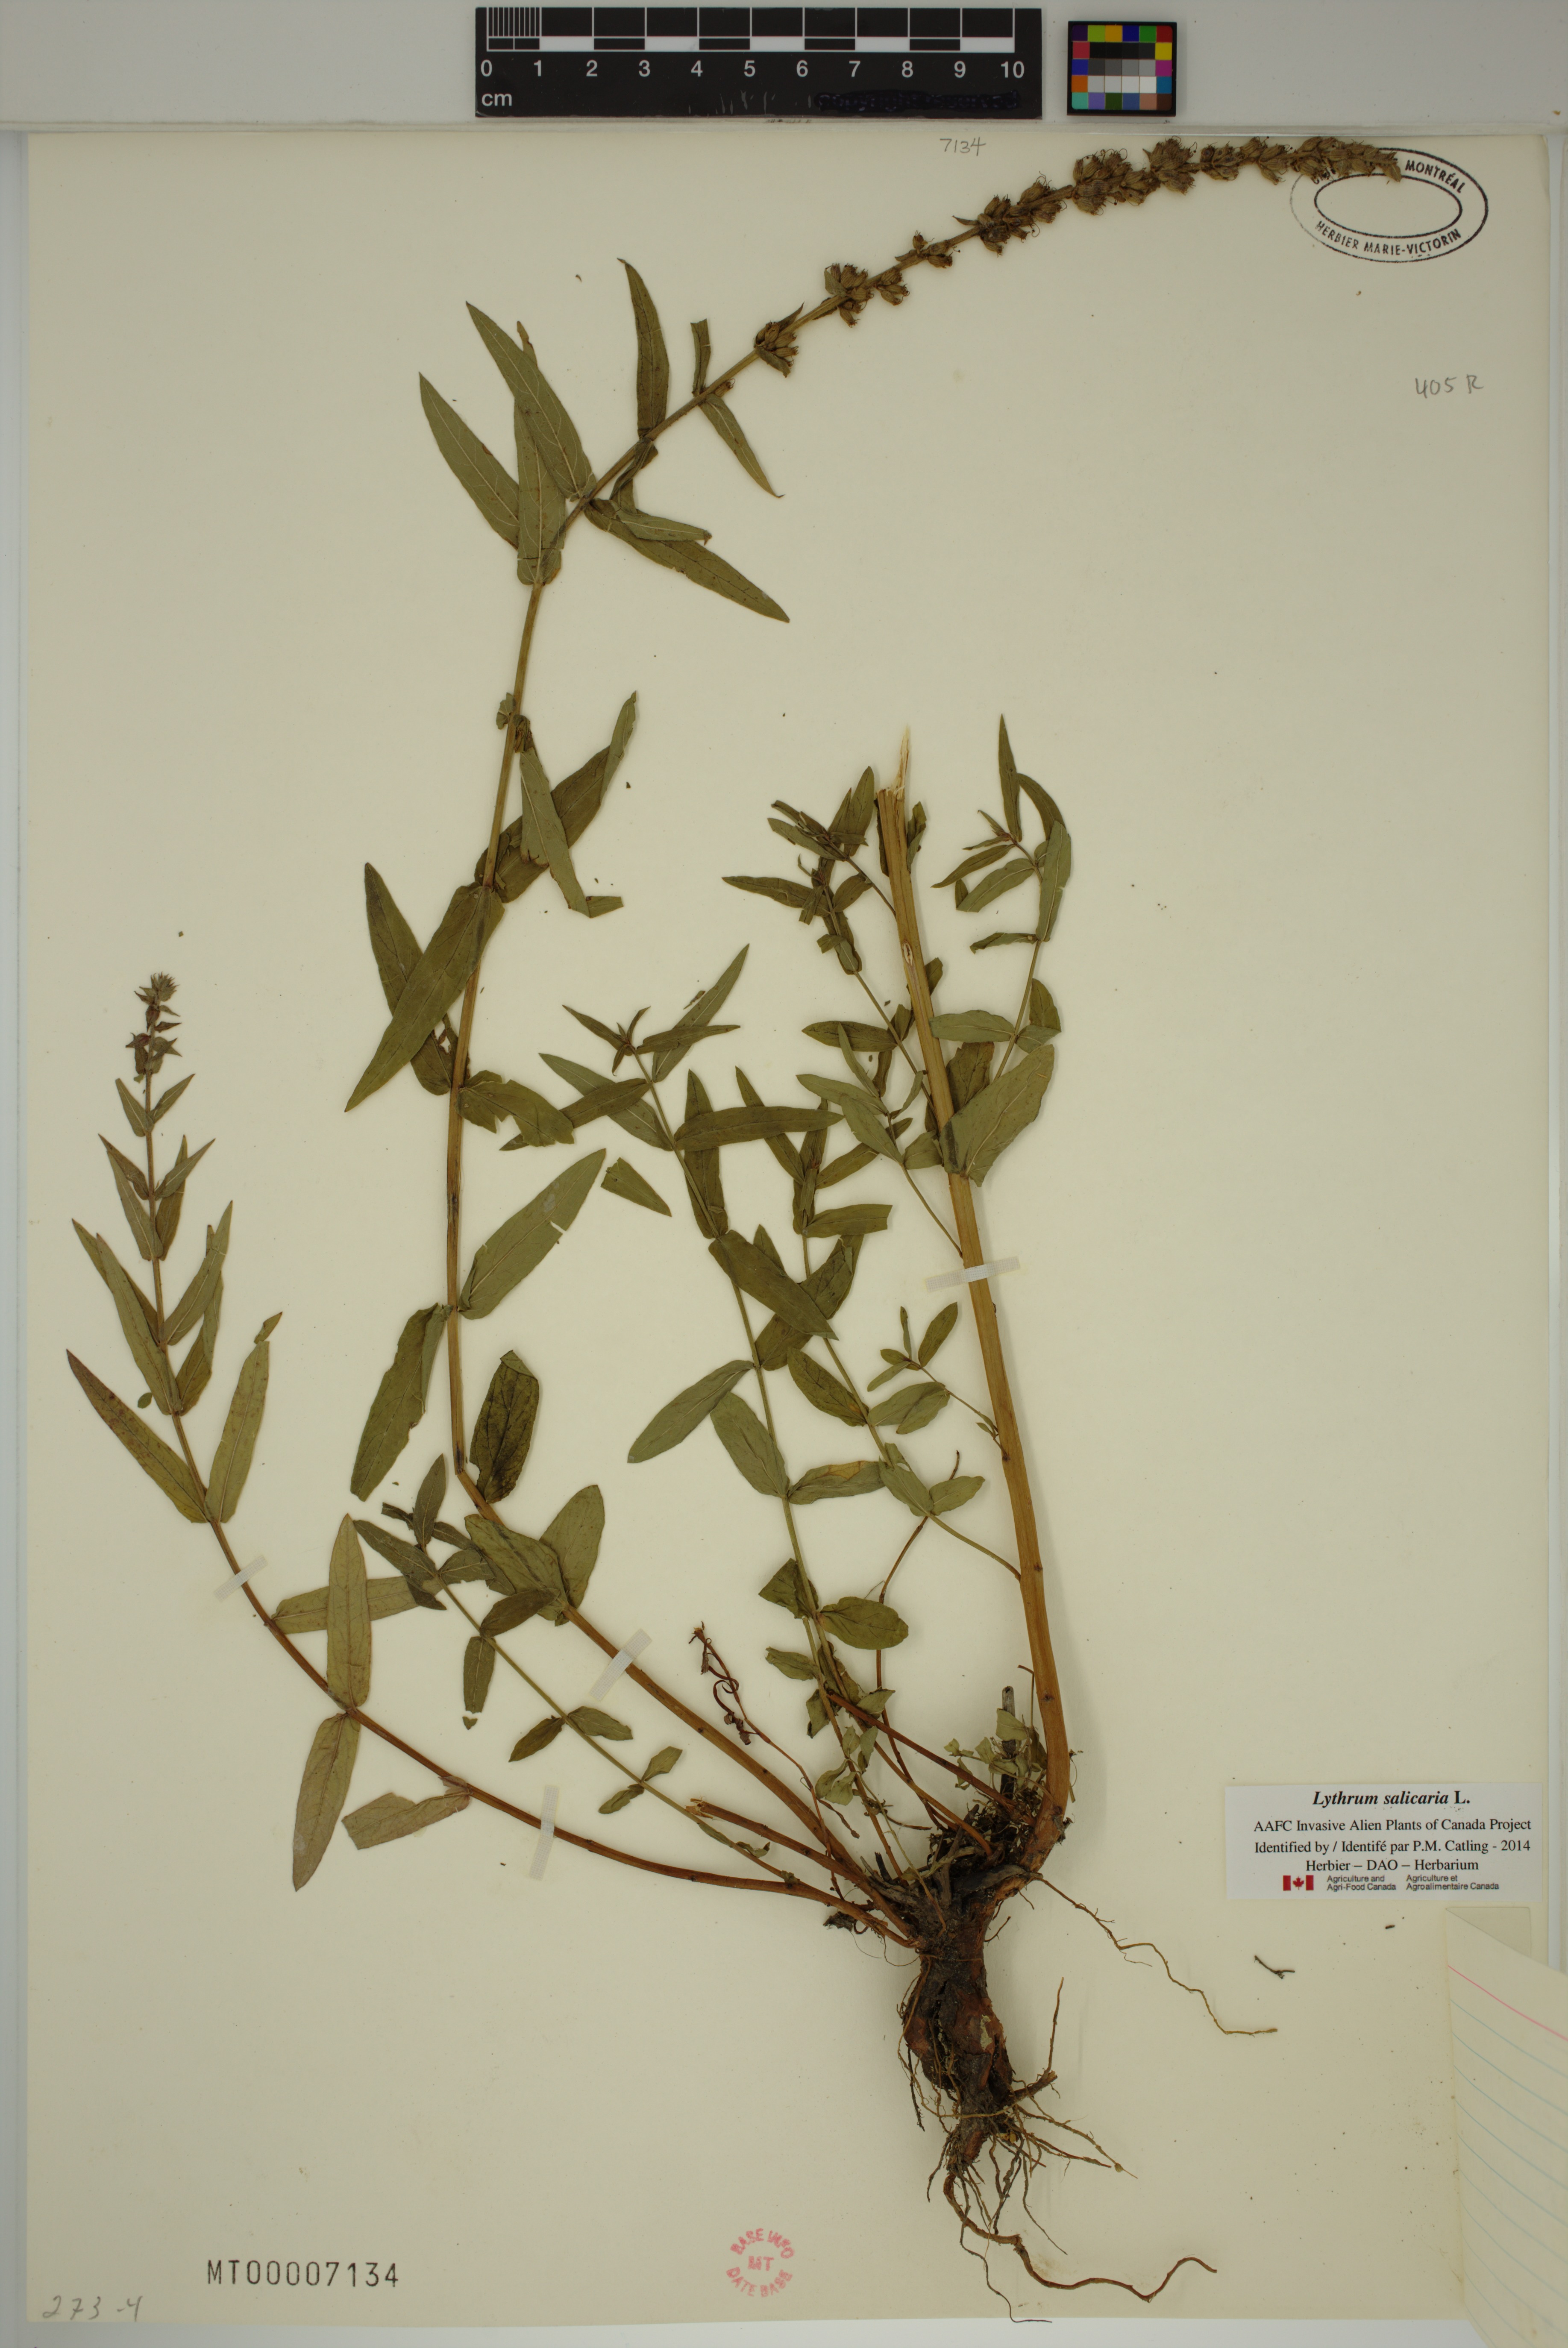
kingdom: Plantae
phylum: Tracheophyta
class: Magnoliopsida
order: Myrtales
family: Lythraceae
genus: Lythrum
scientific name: Lythrum salicaria
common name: Purple loosestrife
